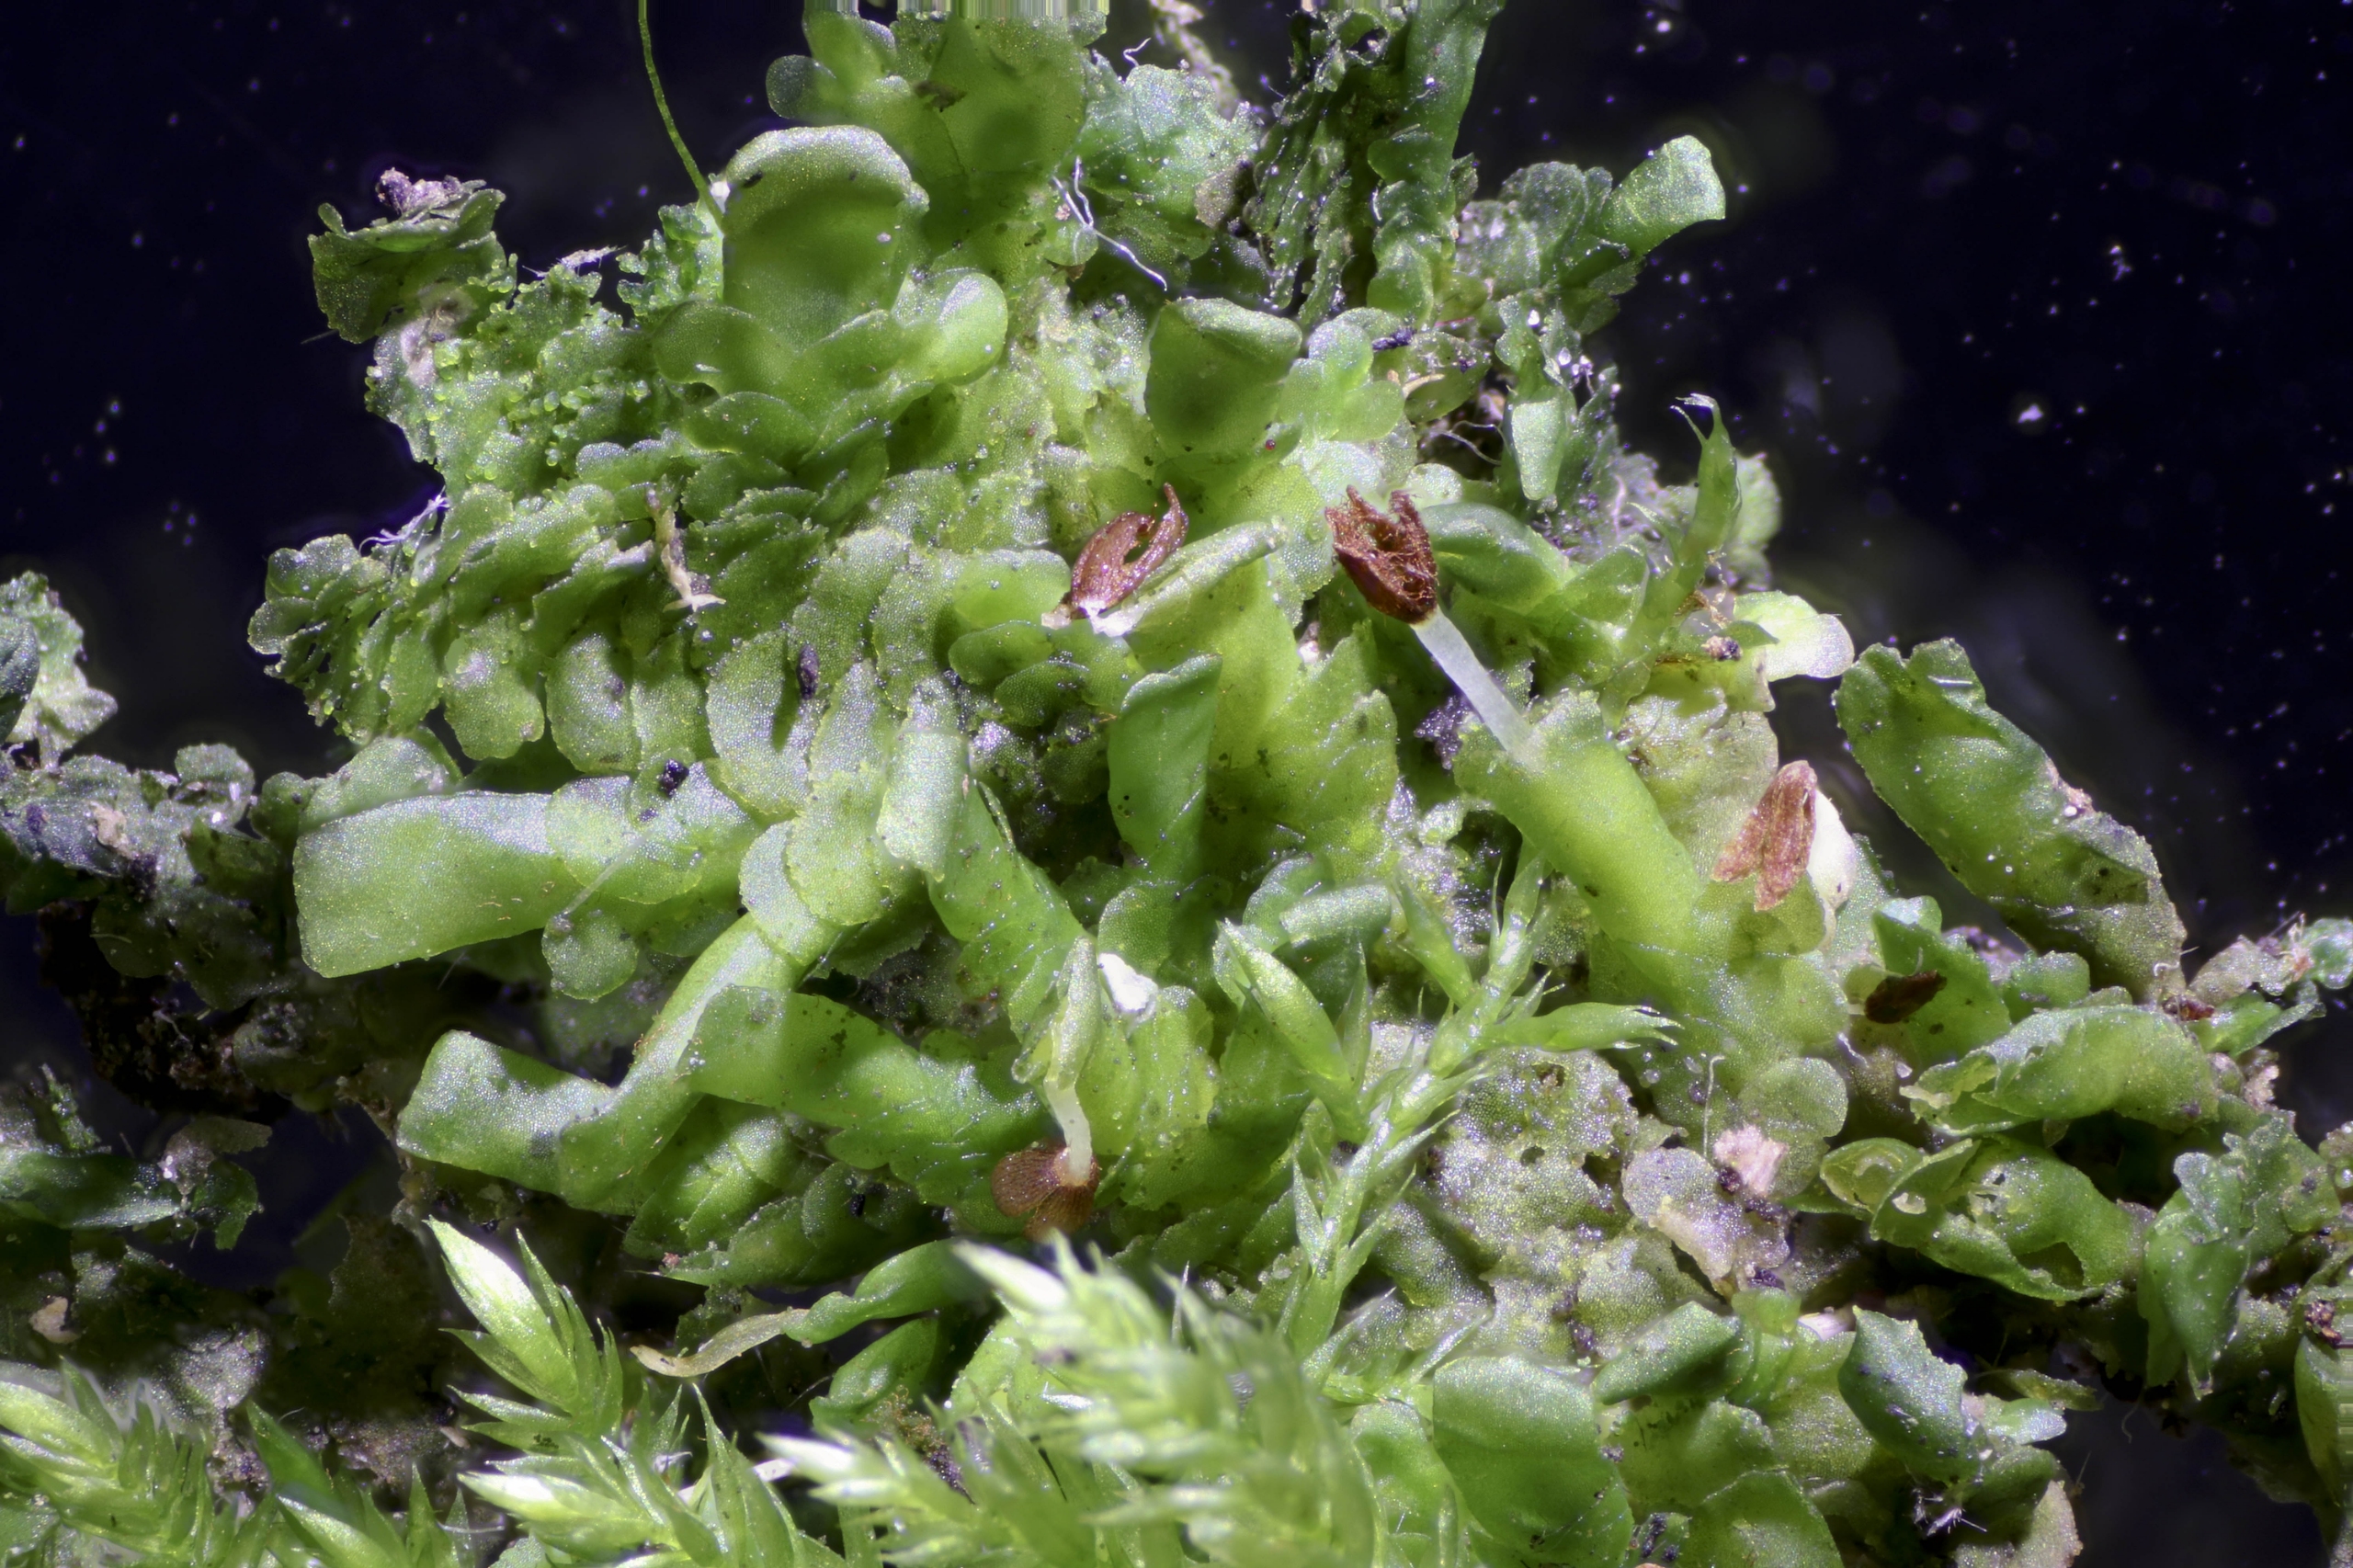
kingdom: Plantae
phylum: Marchantiophyta
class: Jungermanniopsida
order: Porellales
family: Radulaceae
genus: Radula
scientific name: Radula complanata
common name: Almindelig spartelmos
